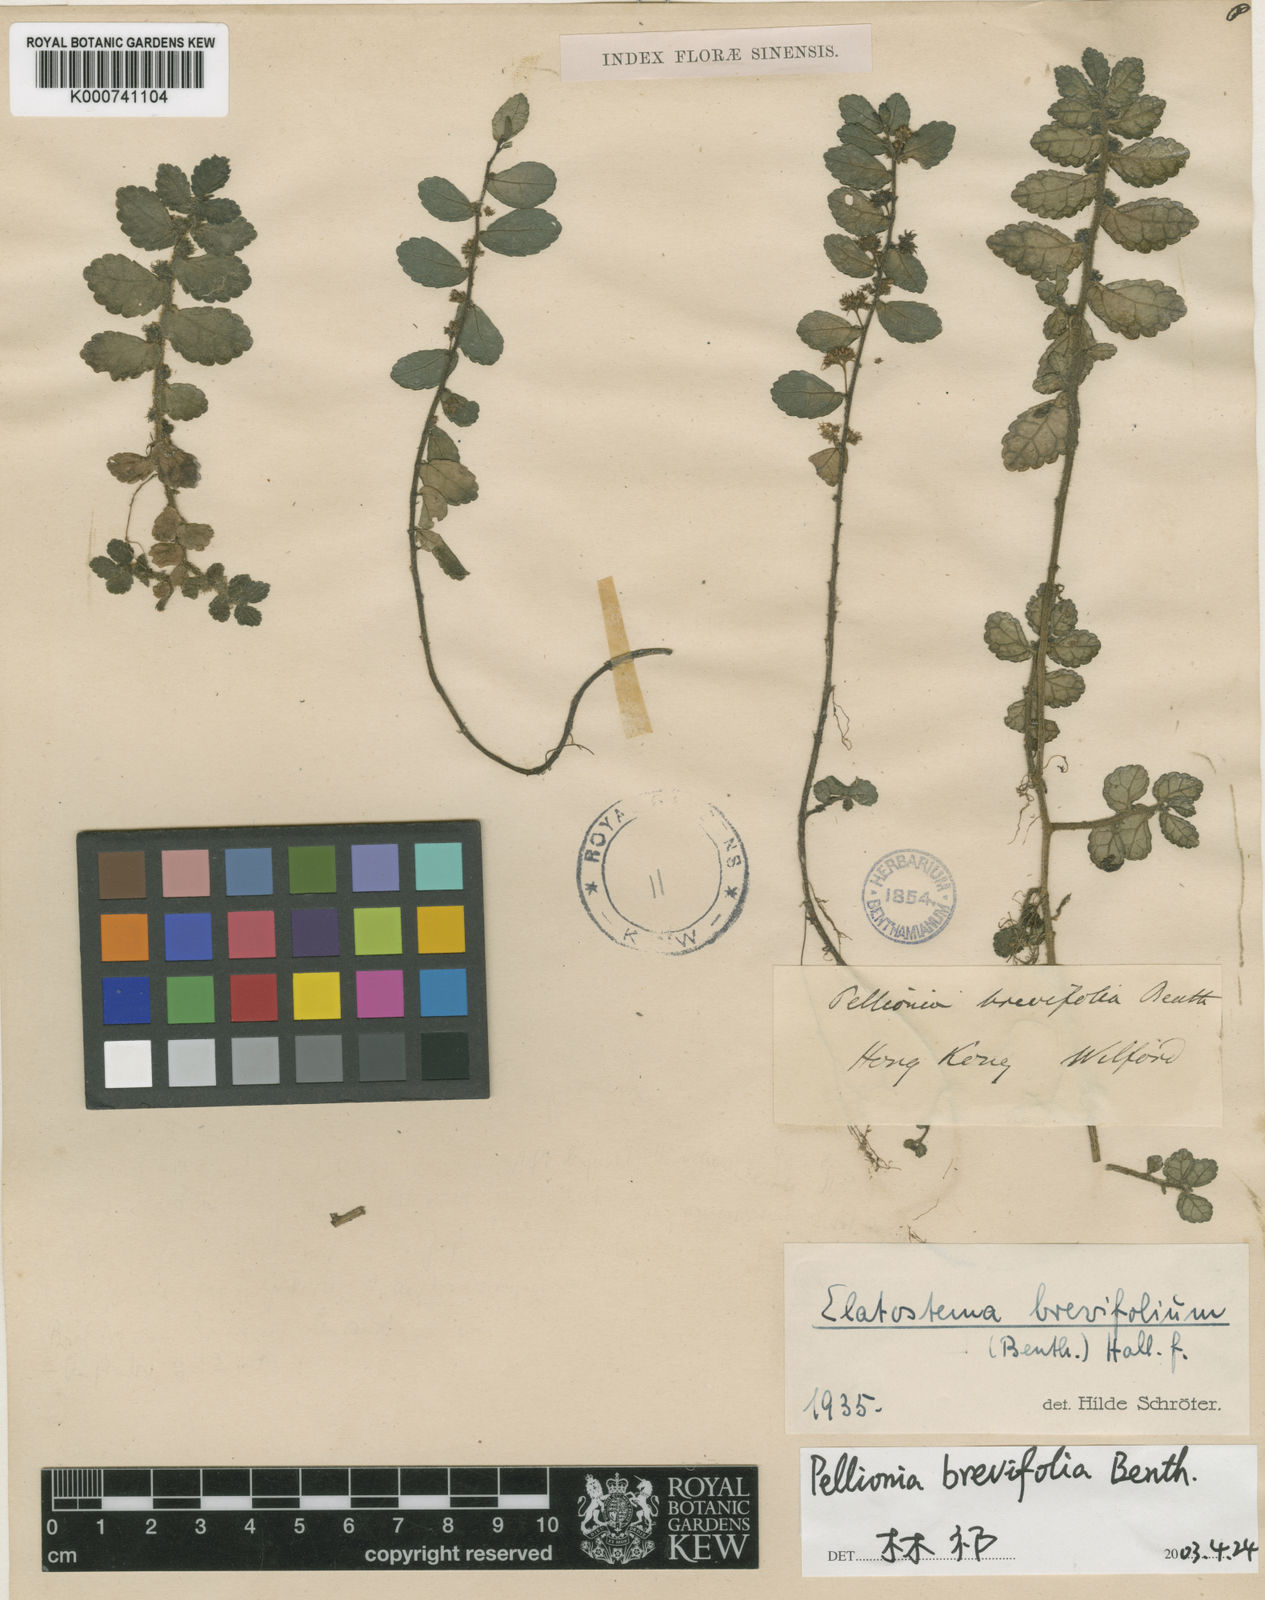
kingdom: Plantae
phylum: Tracheophyta
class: Magnoliopsida
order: Rosales
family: Urticaceae
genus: Elatostema
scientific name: Elatostema brevifolium
